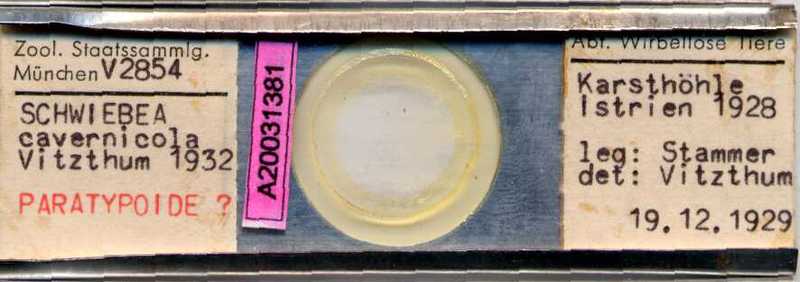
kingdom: Animalia
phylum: Arthropoda
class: Arachnida
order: Sarcoptiformes
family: Acaridae
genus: Schwiebea
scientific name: Schwiebea cavernicola
